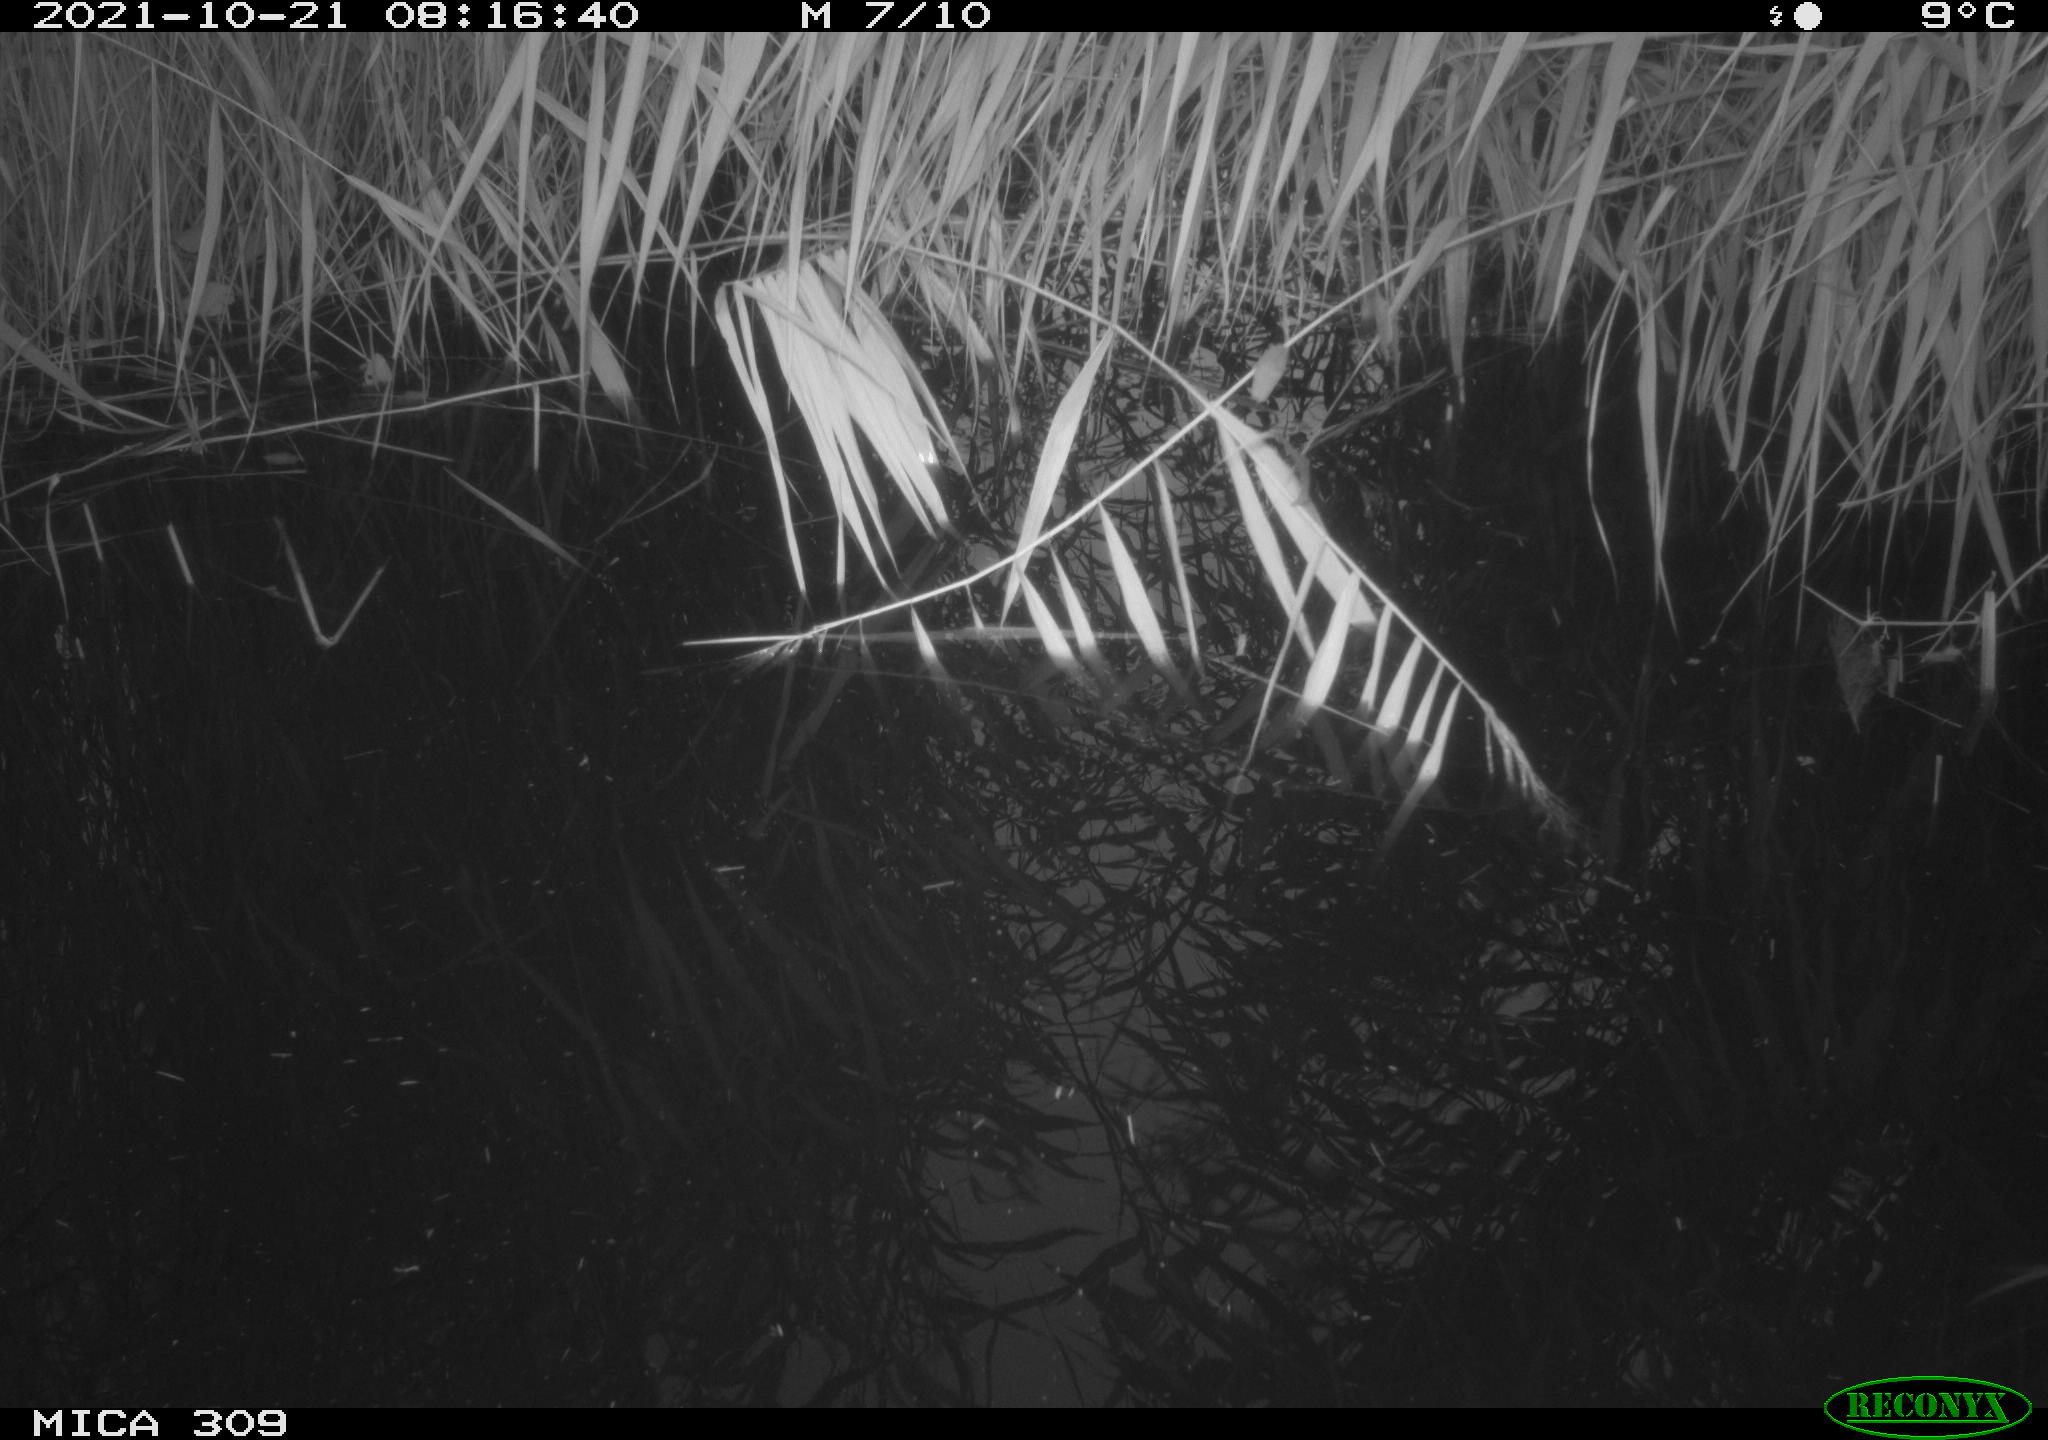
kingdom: Animalia
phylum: Chordata
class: Aves
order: Gruiformes
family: Rallidae
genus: Gallinula
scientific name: Gallinula chloropus
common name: Common moorhen
